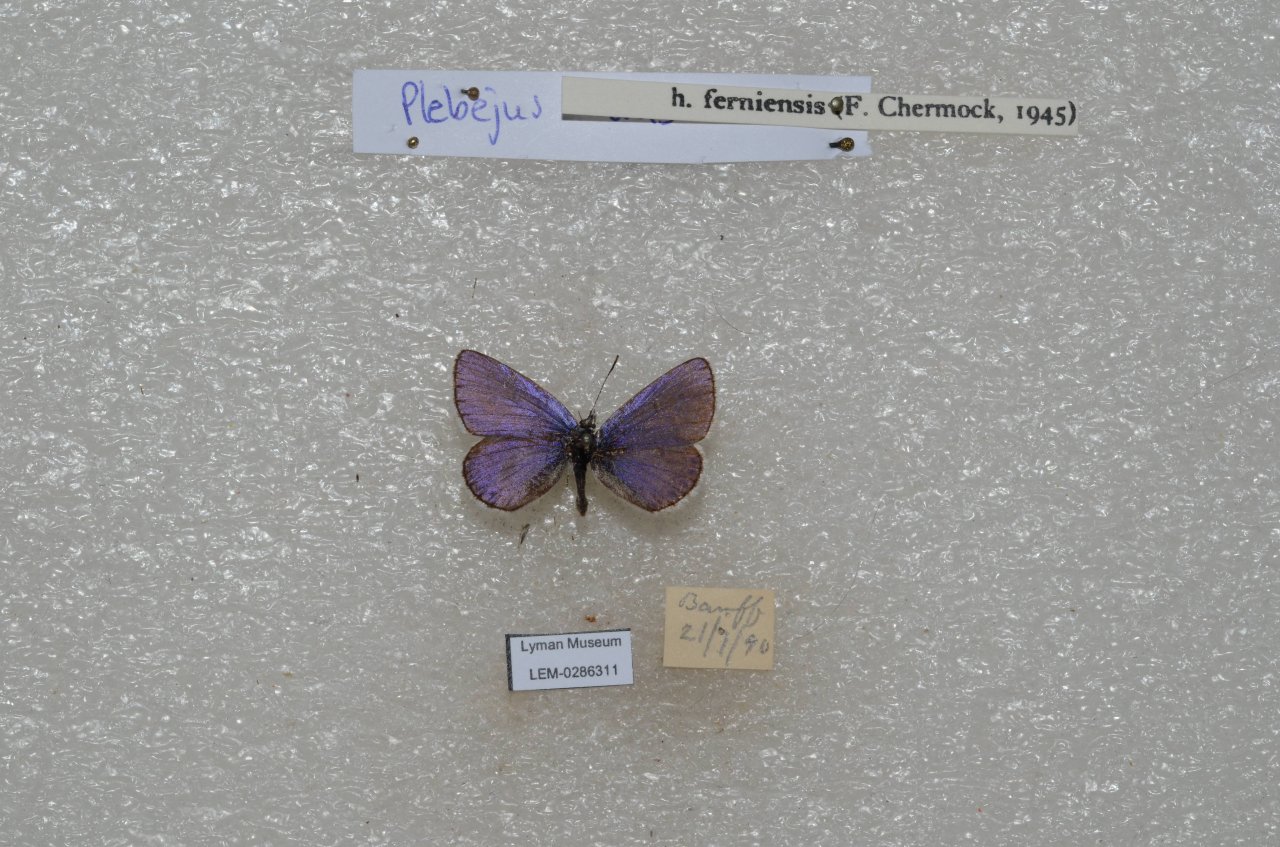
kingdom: Animalia
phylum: Arthropoda
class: Insecta
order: Lepidoptera
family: Lycaenidae
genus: Lycaeides
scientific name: Lycaeides idas
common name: Northern Blue
